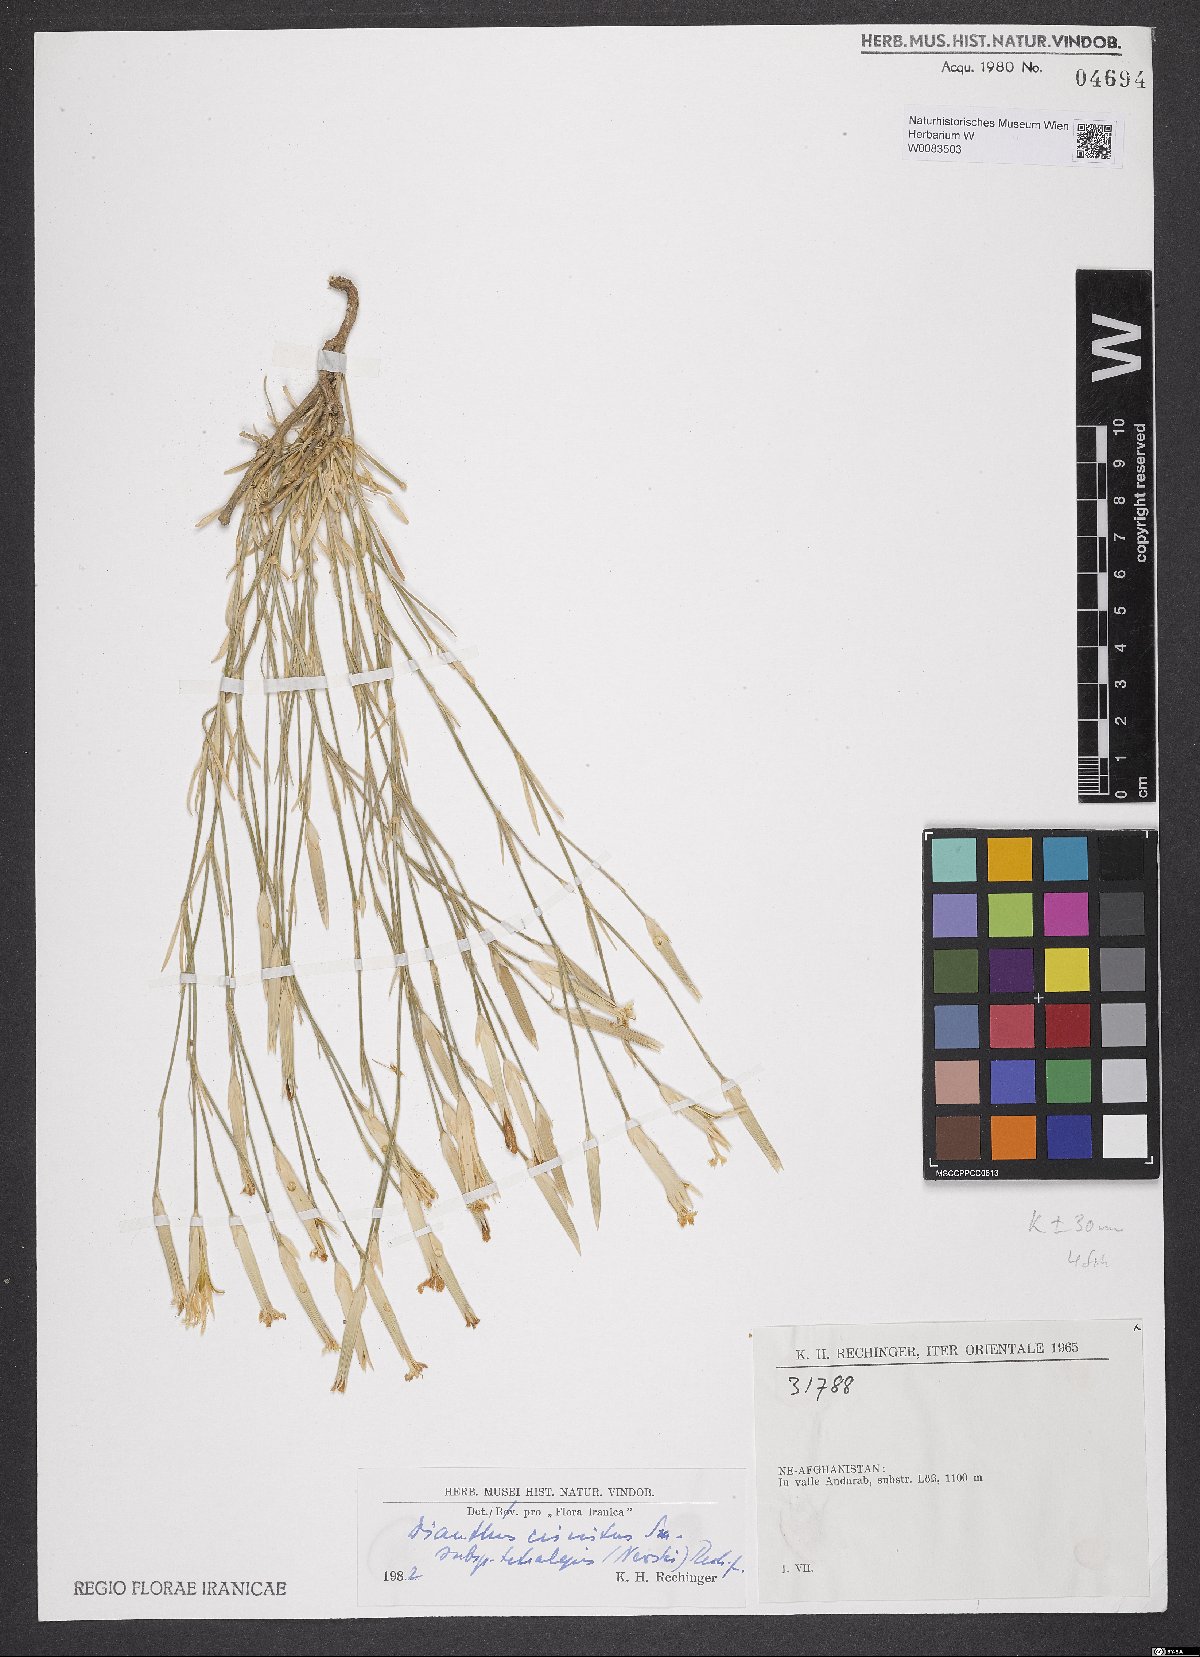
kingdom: Plantae
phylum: Tracheophyta
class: Magnoliopsida
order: Caryophyllales
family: Caryophyllaceae
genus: Dianthus
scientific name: Dianthus crinitus
